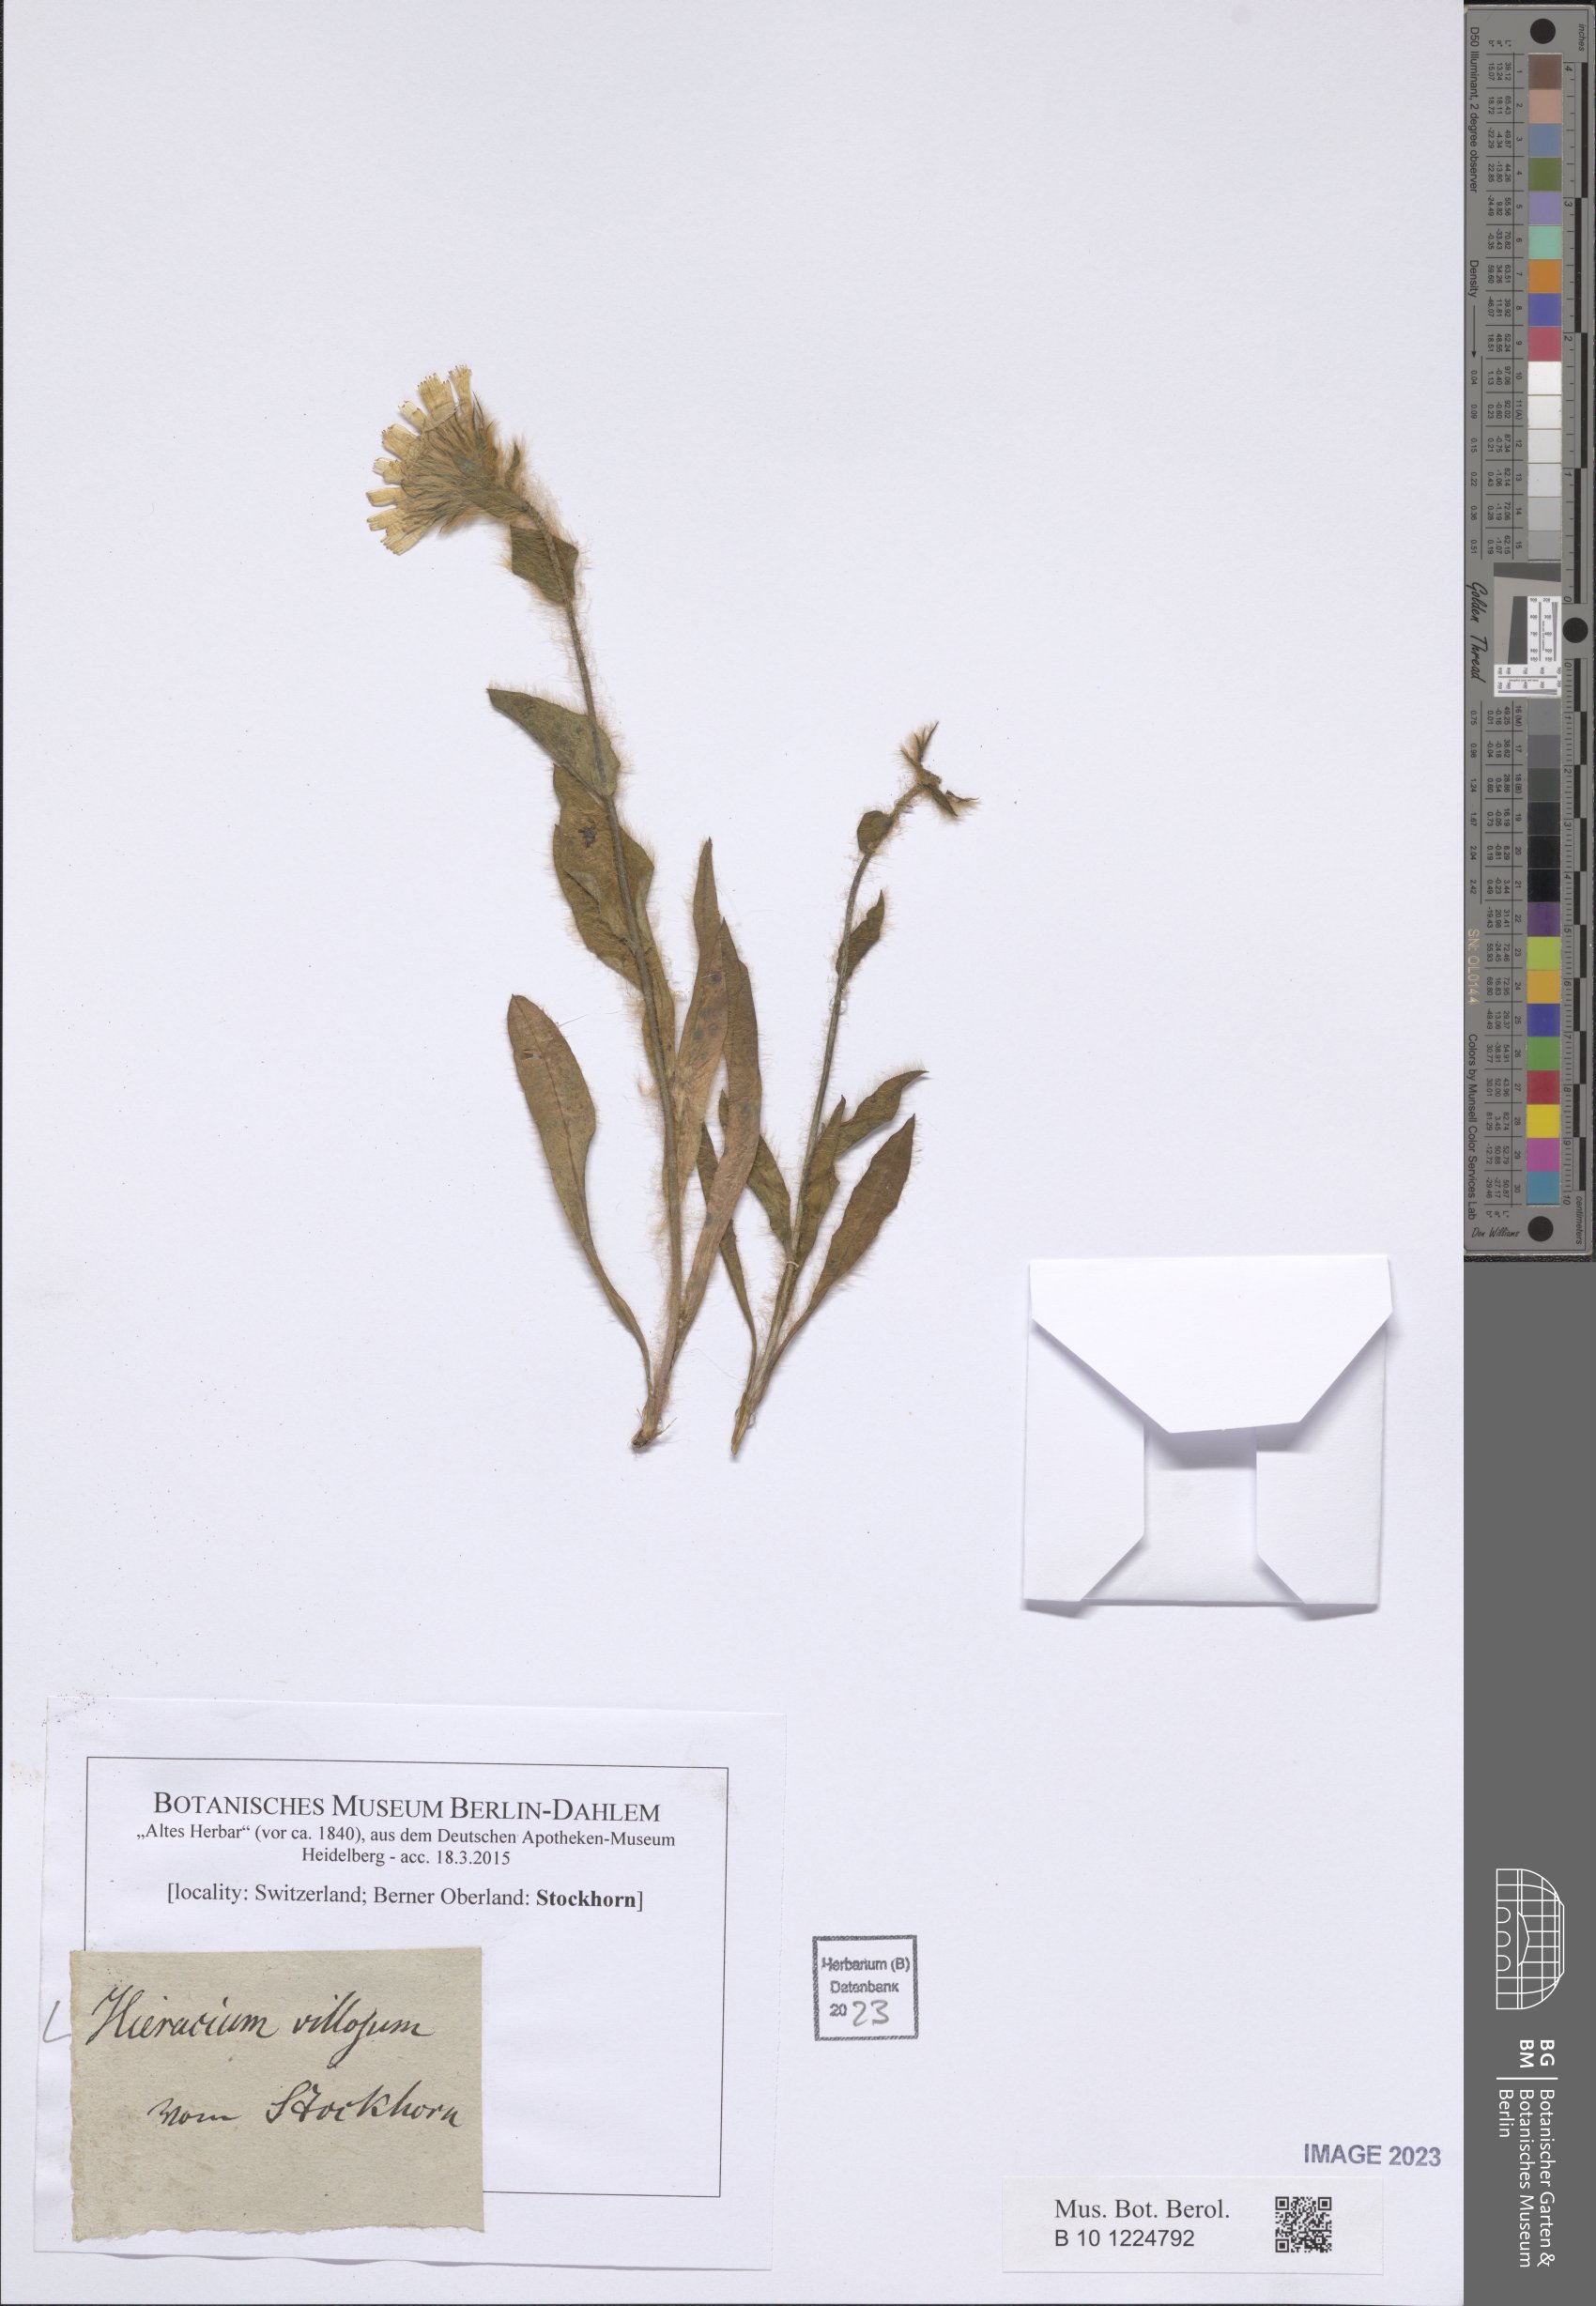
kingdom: Plantae
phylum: Tracheophyta
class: Magnoliopsida
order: Asterales
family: Asteraceae
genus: Hieracium
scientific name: Hieracium villosum
